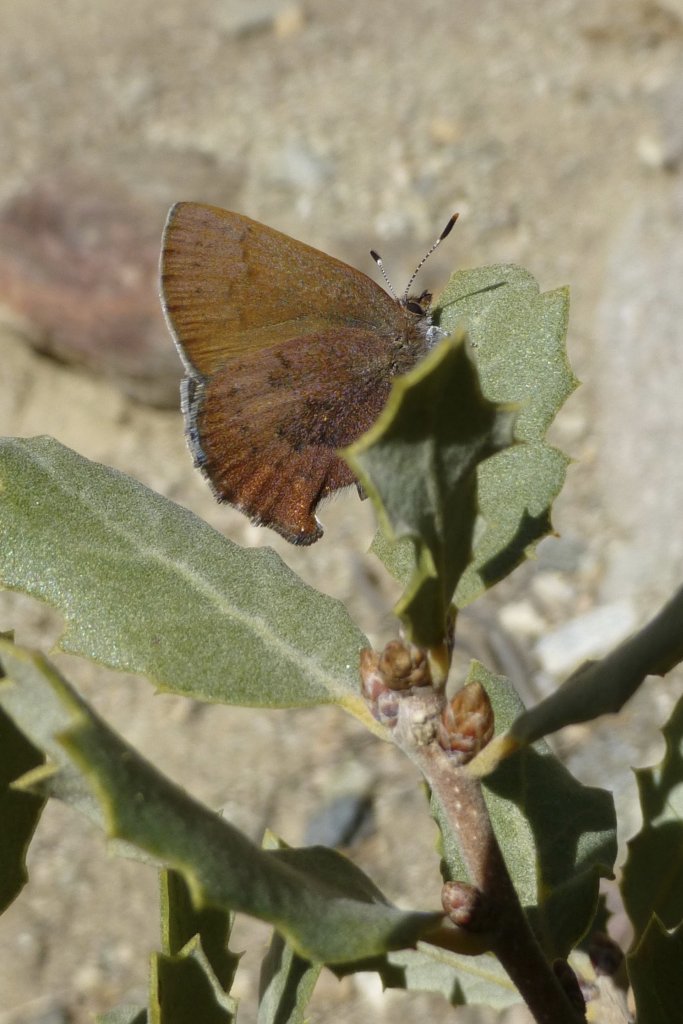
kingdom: Animalia
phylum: Arthropoda
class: Insecta
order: Lepidoptera
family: Lycaenidae
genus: Incisalia
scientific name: Incisalia irioides
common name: Brown Elfin
